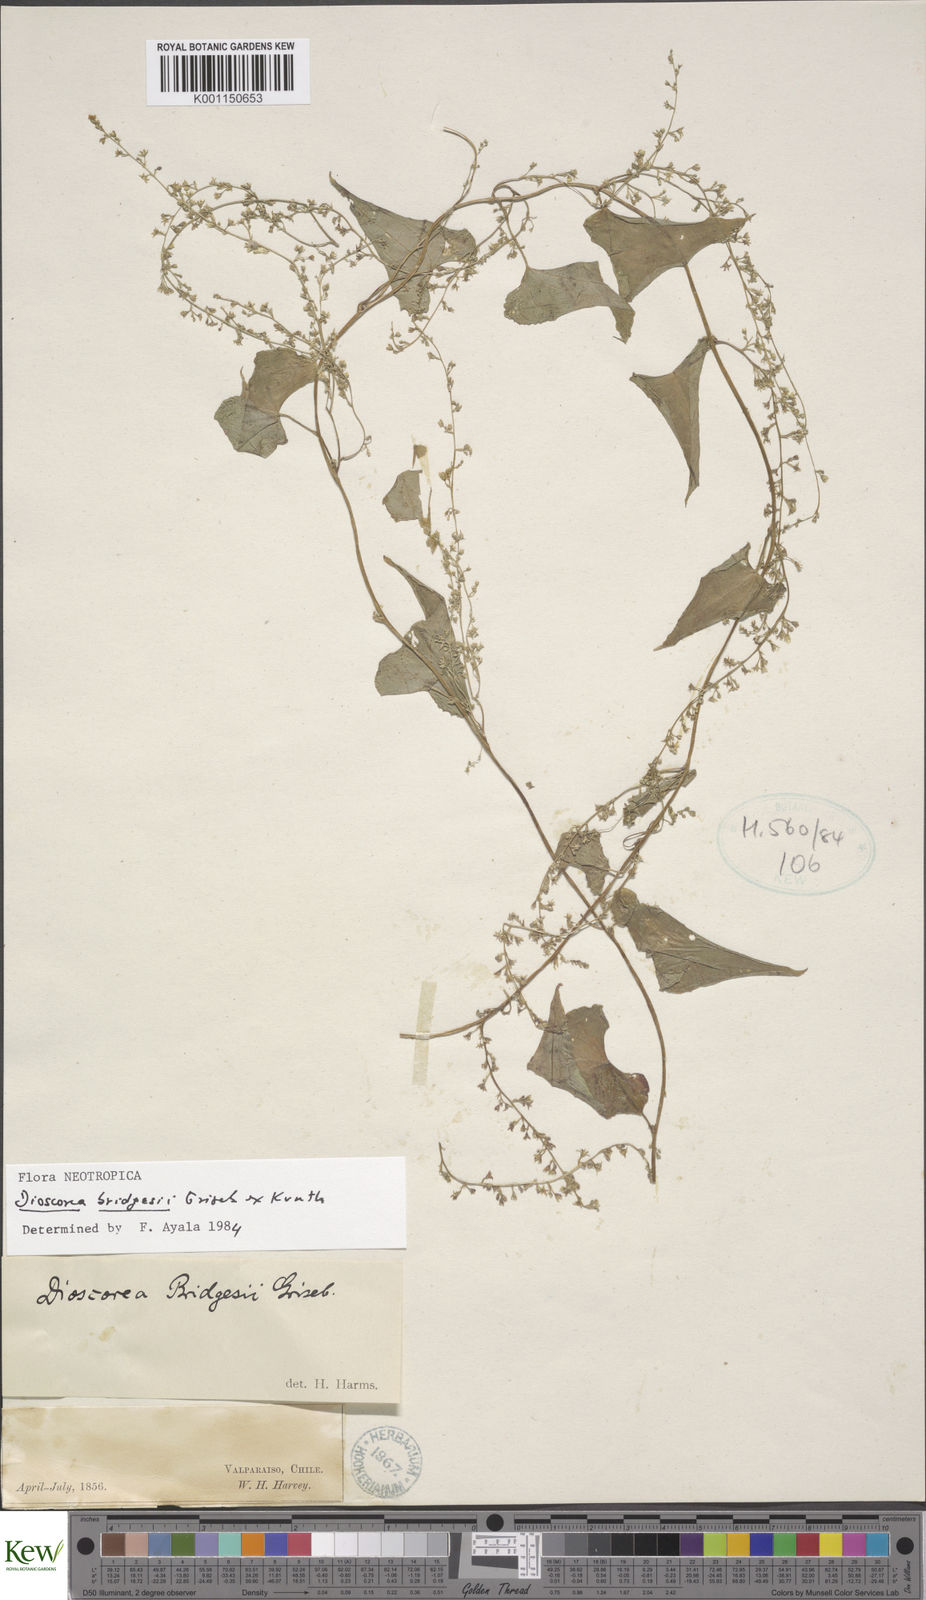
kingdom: Plantae
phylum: Tracheophyta
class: Liliopsida
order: Dioscoreales
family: Dioscoreaceae
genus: Dioscorea
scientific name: Dioscorea bridgesii
